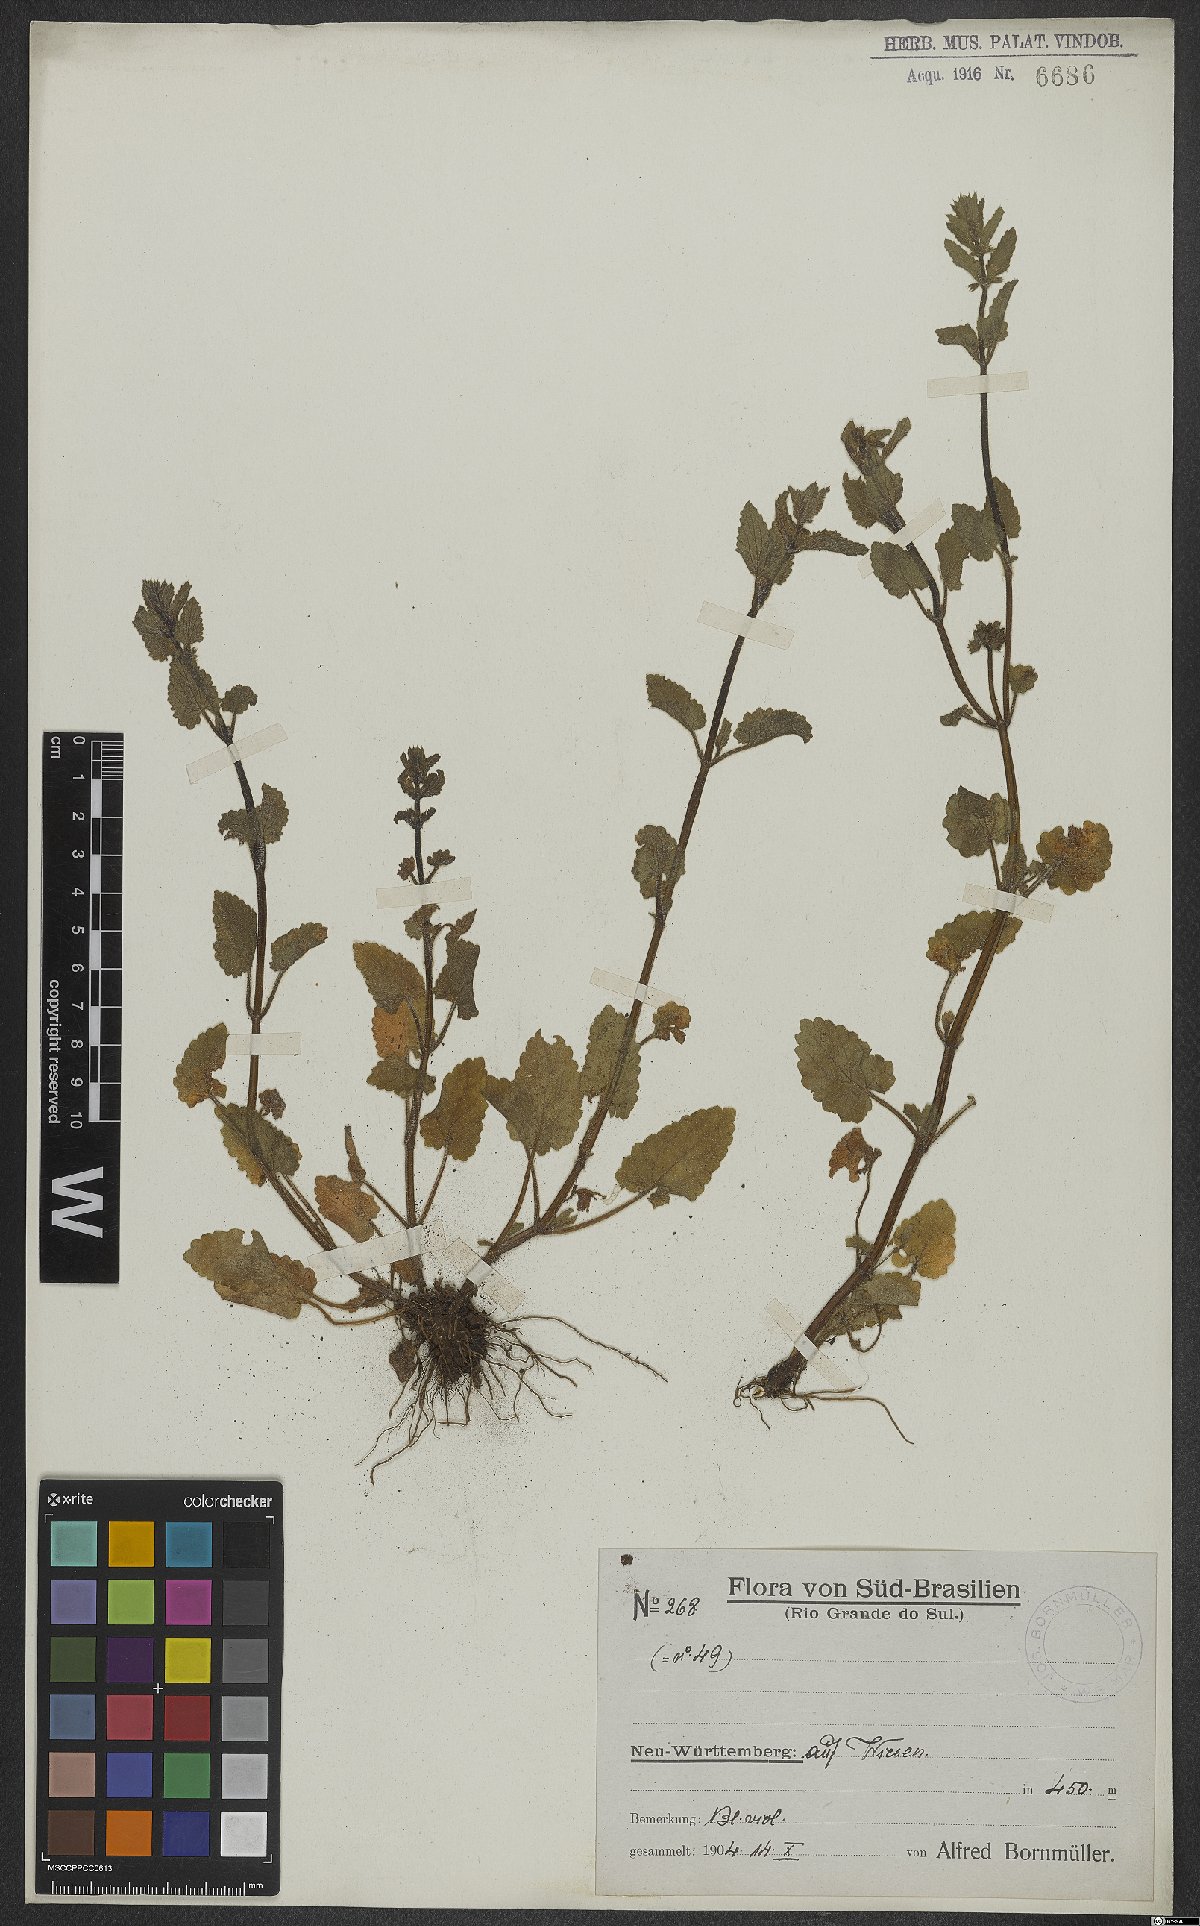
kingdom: Plantae
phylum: Tracheophyta
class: Magnoliopsida
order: Lamiales
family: Scrophulariaceae
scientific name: Scrophulariaceae
